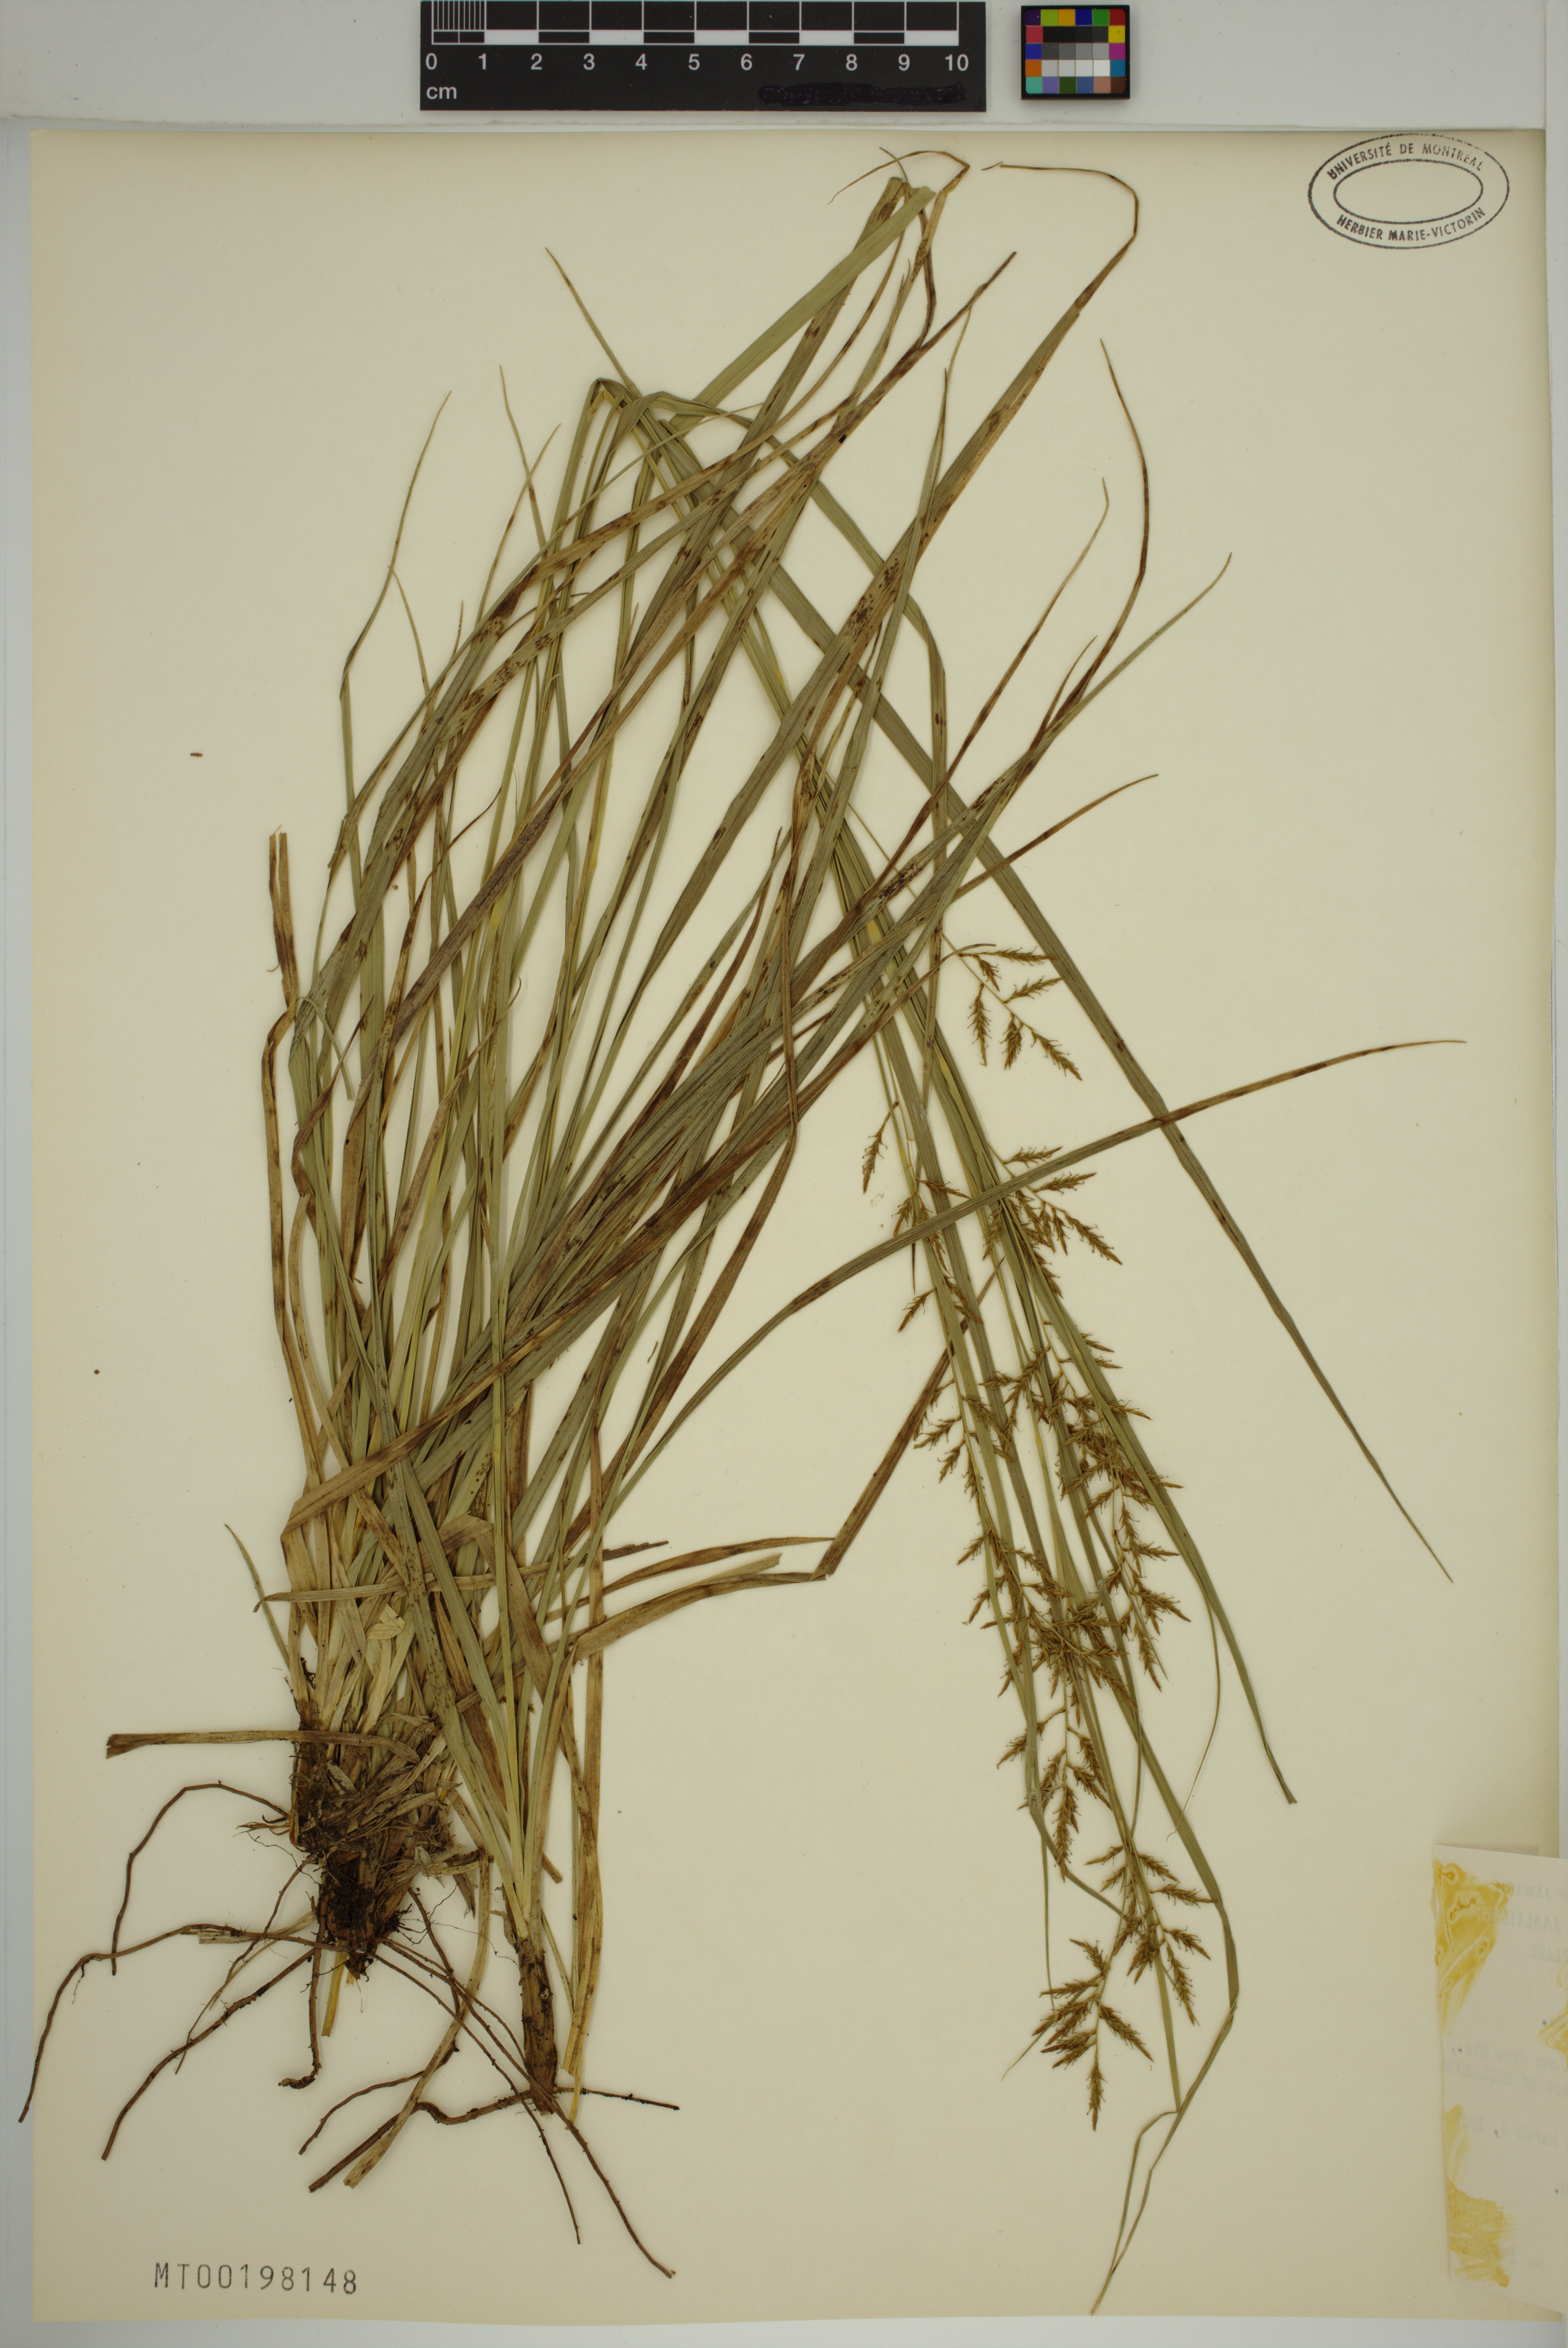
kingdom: Plantae
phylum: Tracheophyta
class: Liliopsida
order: Poales
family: Cyperaceae
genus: Carex
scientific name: Carex polystachya
